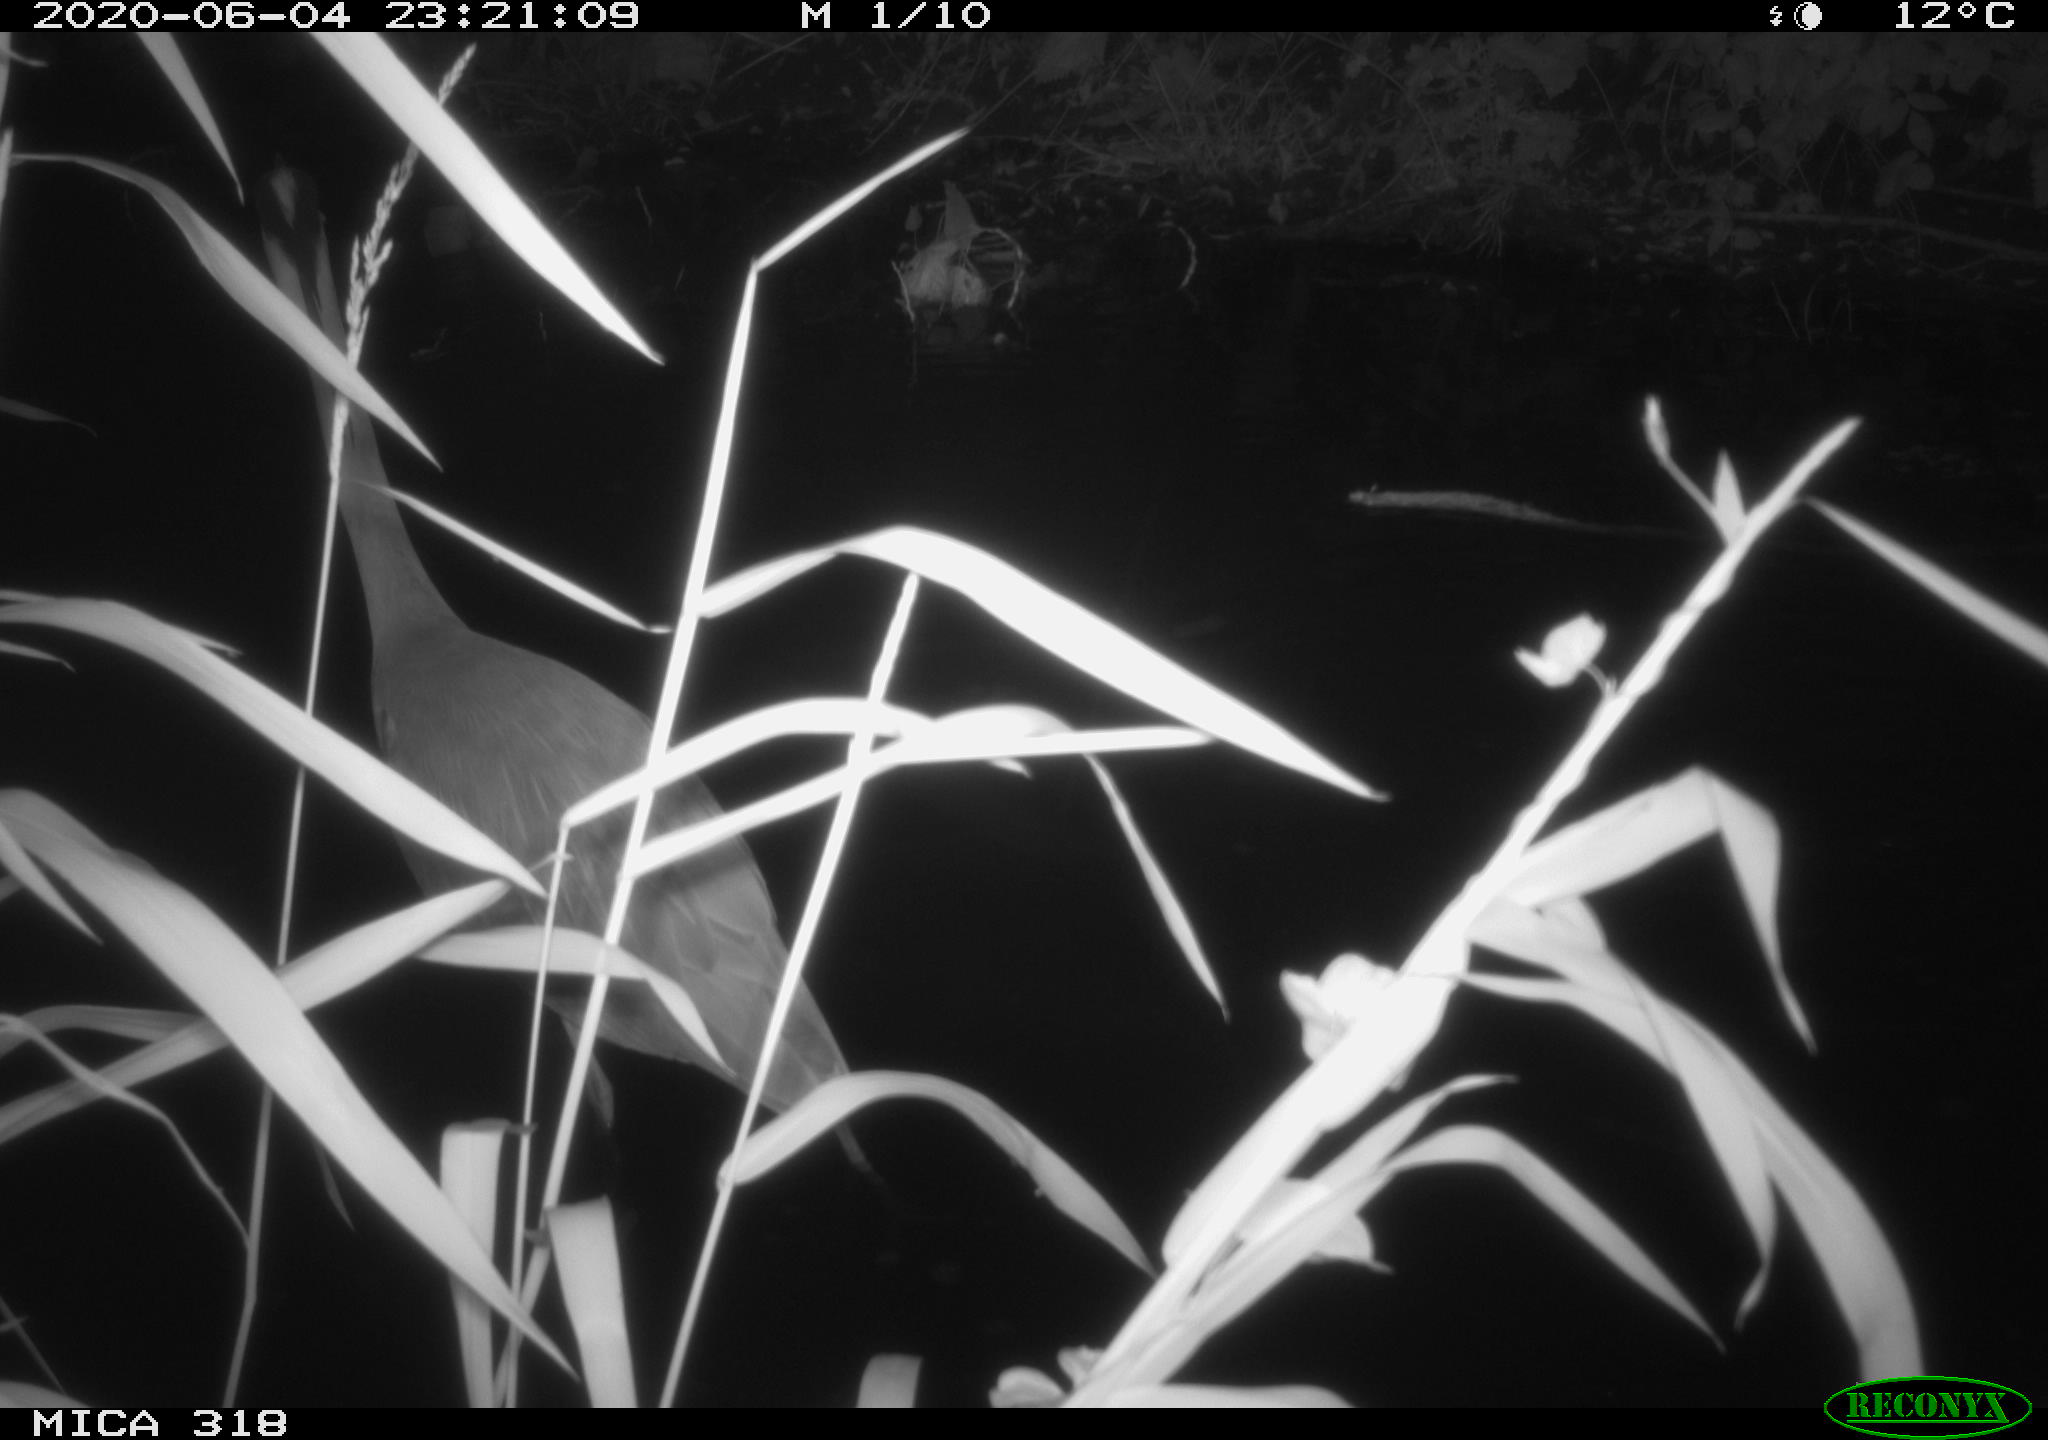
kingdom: Animalia
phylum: Chordata
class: Aves
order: Pelecaniformes
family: Ardeidae
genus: Ardea
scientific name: Ardea cinerea
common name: Grey heron
